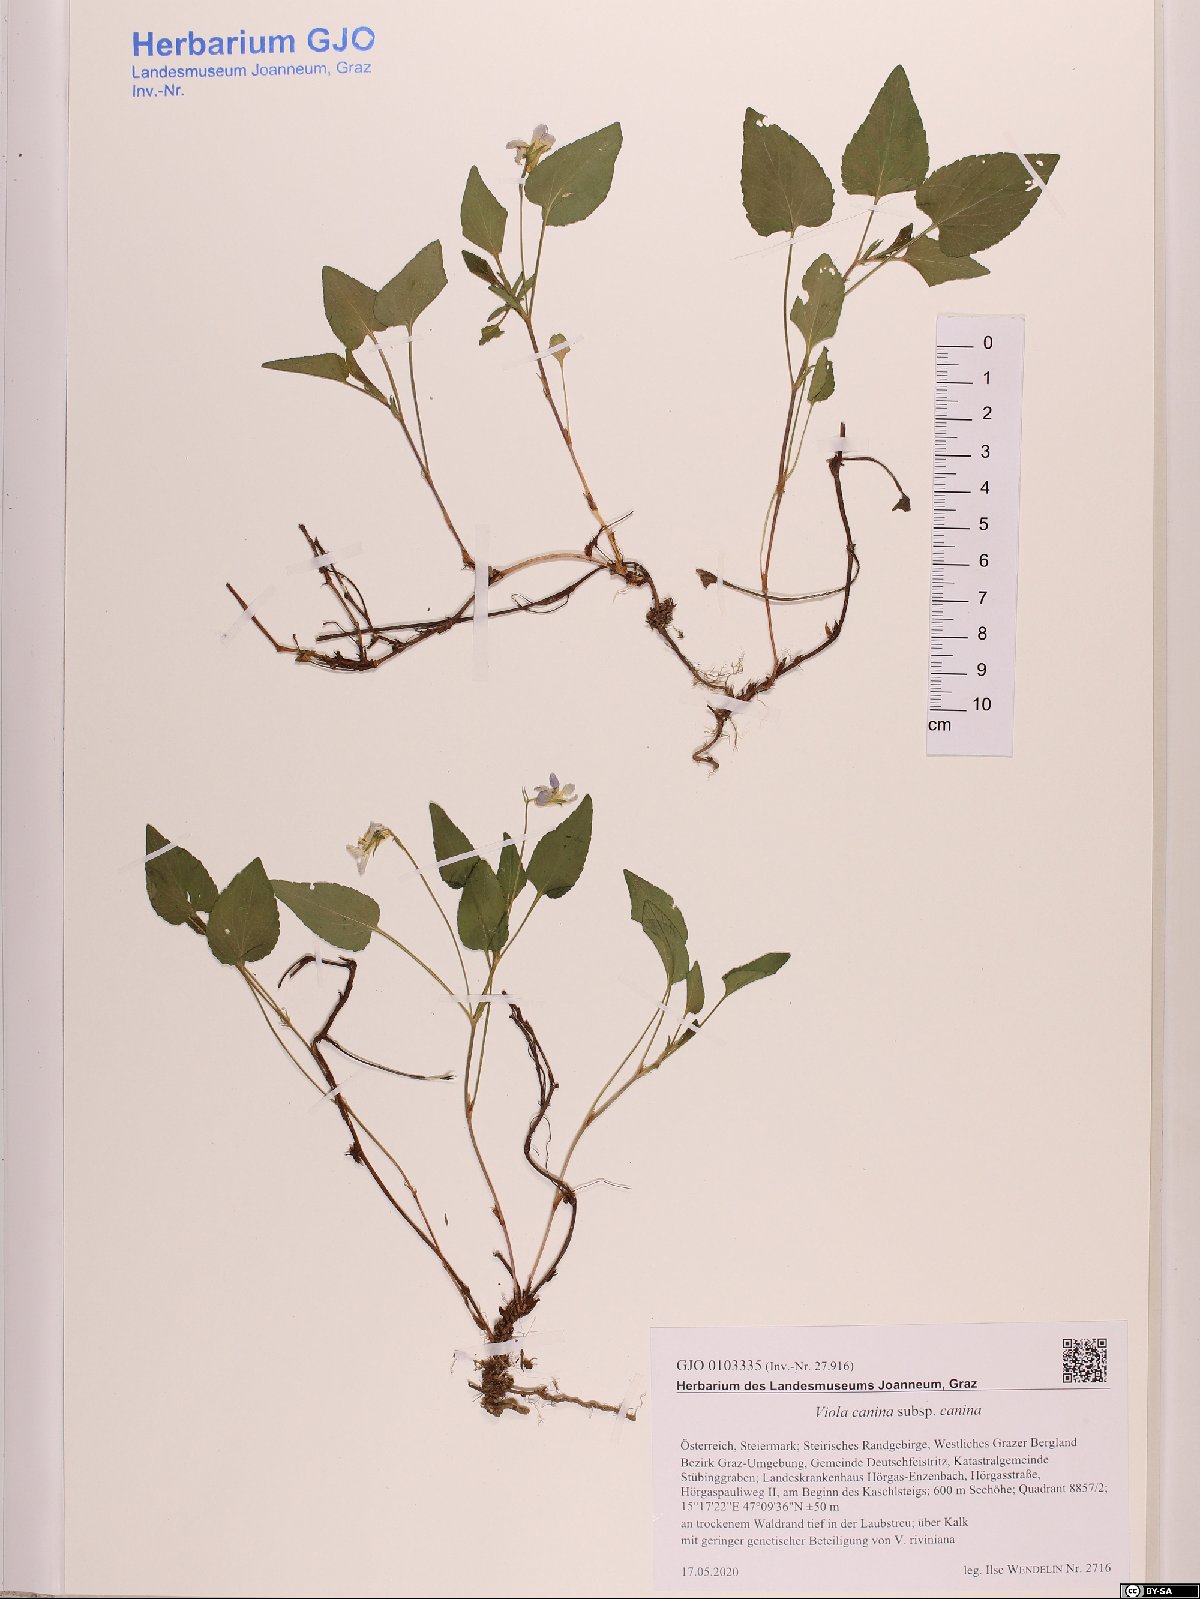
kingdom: Plantae
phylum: Tracheophyta
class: Magnoliopsida
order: Malpighiales
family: Violaceae
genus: Viola
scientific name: Viola canina
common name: Heath dog-violet
